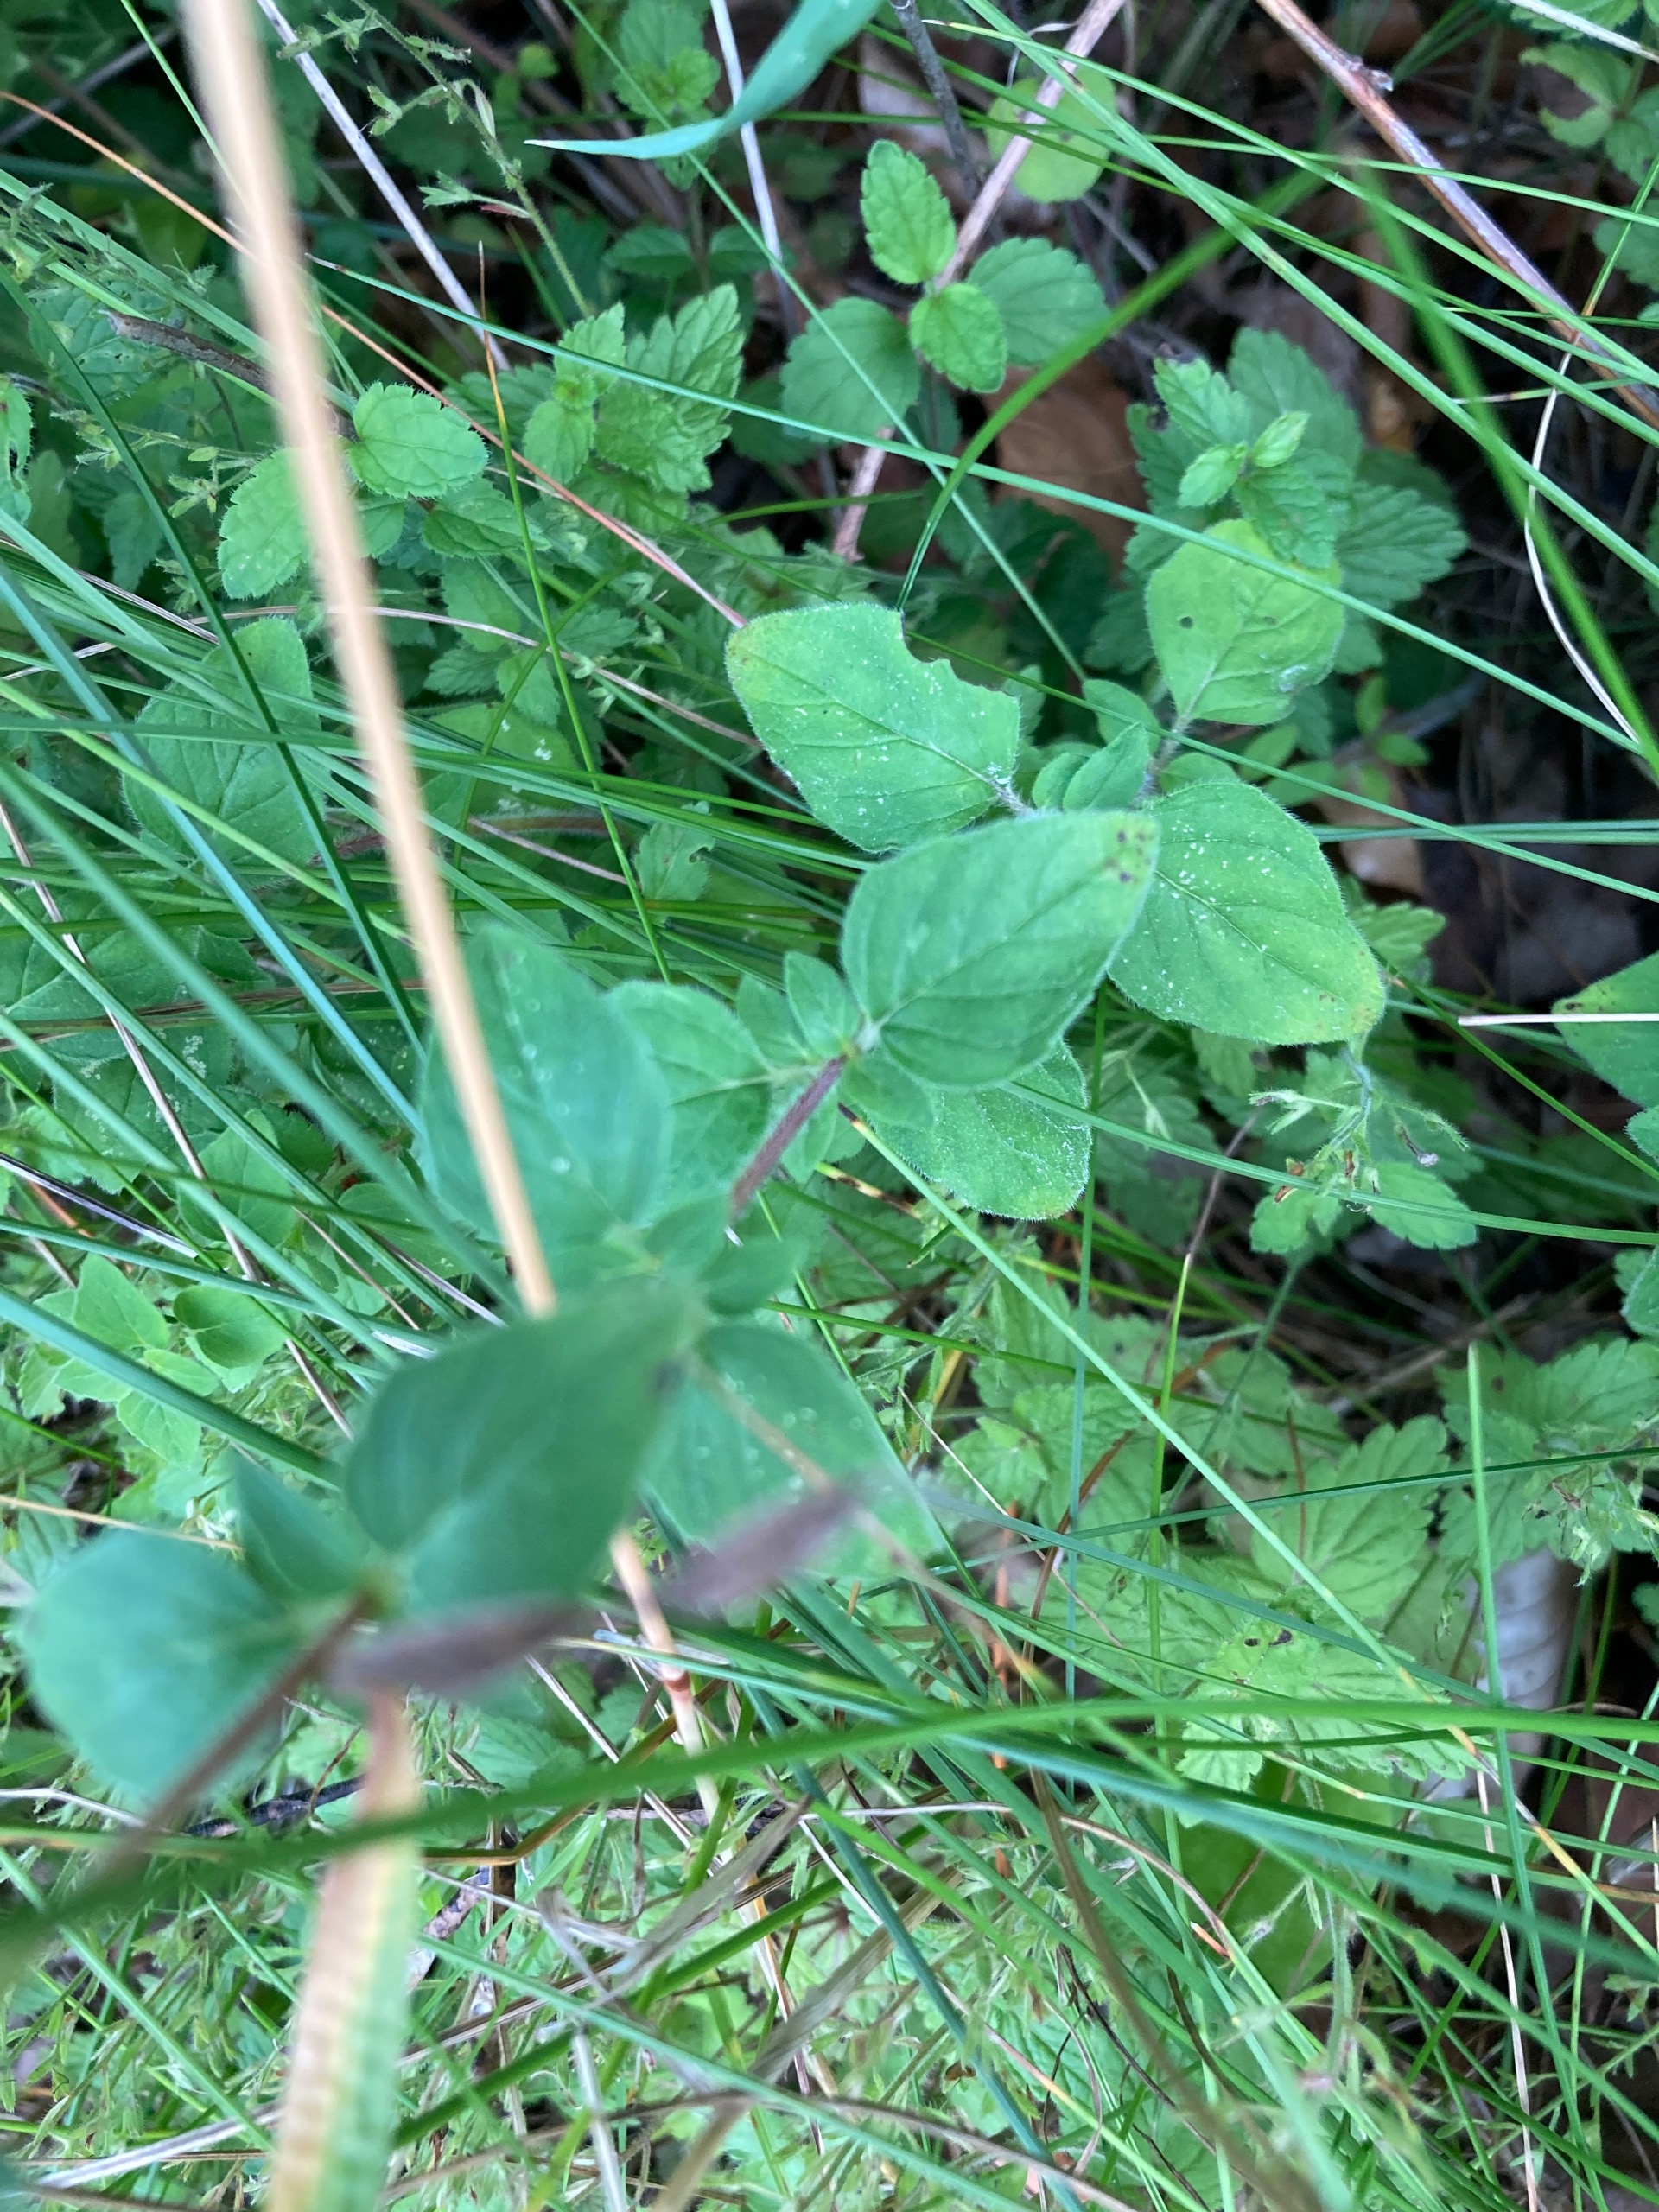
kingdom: Plantae
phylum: Tracheophyta
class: Magnoliopsida
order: Lamiales
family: Lamiaceae
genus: Origanum
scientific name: Origanum vulgare
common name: Merian
